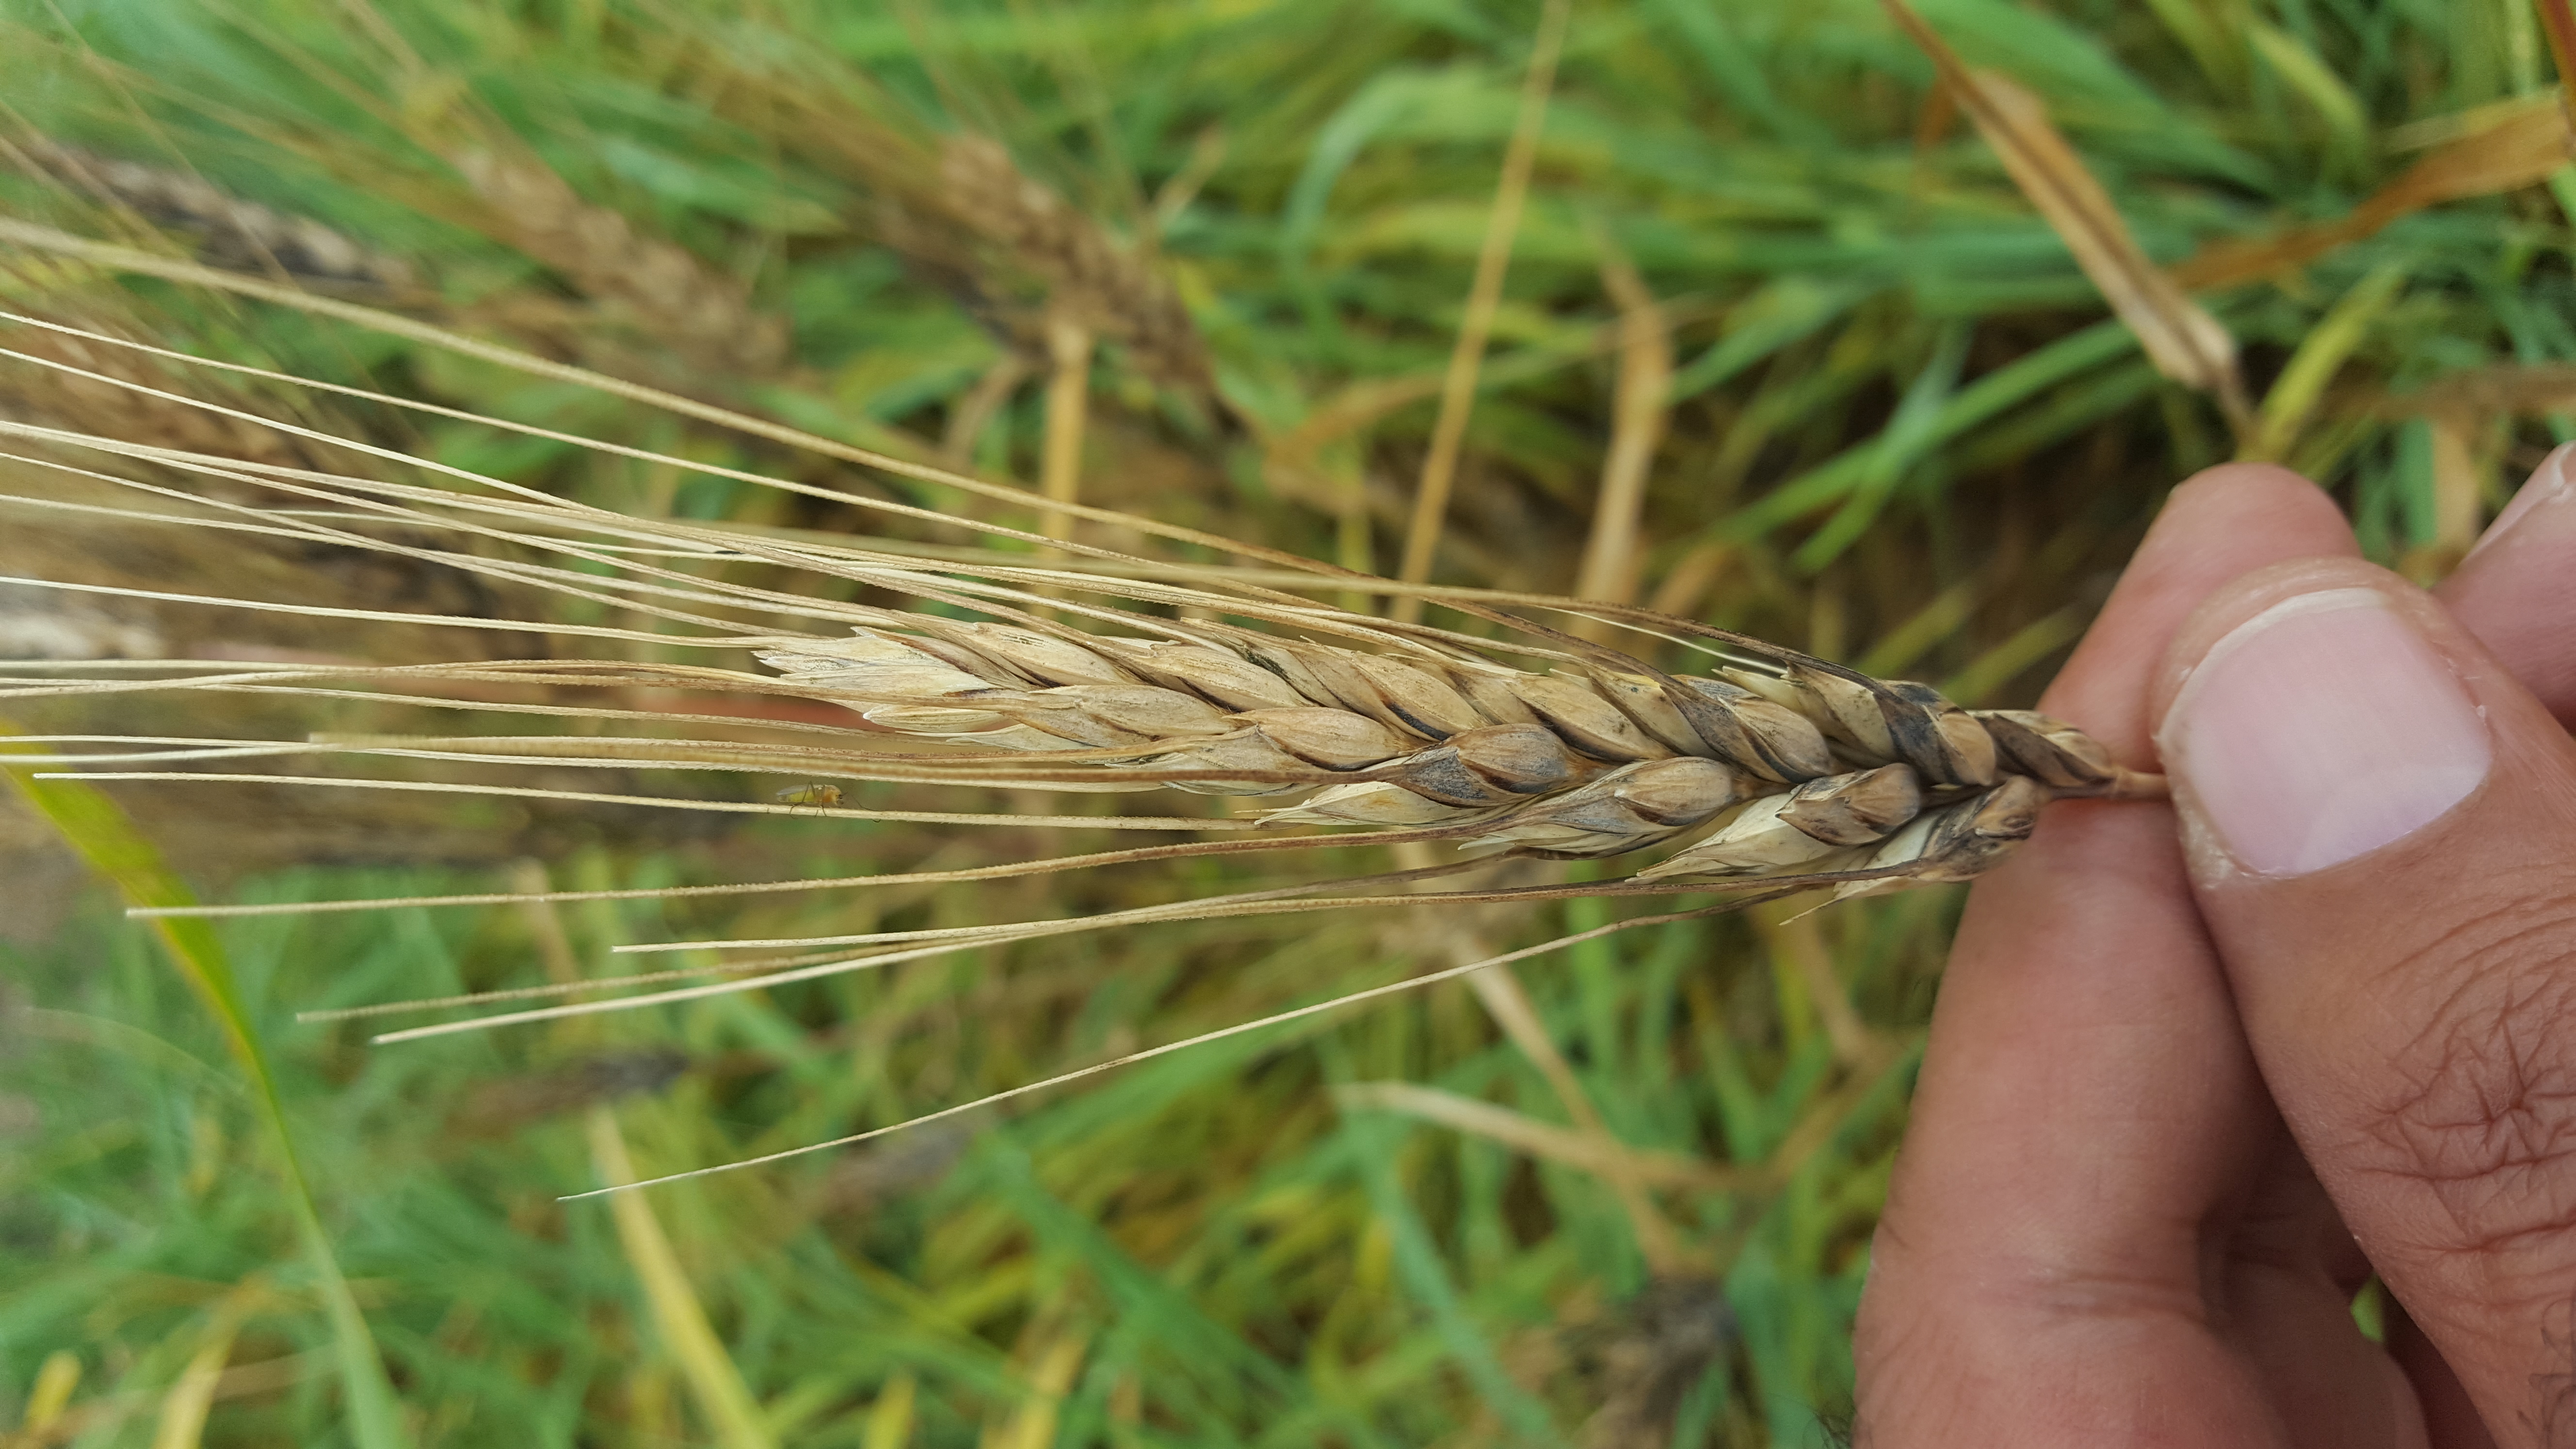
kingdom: Plantae
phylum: Tracheophyta
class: Liliopsida
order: Poales
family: Poaceae
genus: Triticum
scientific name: Triticum turgidum
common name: Rivet wheat
